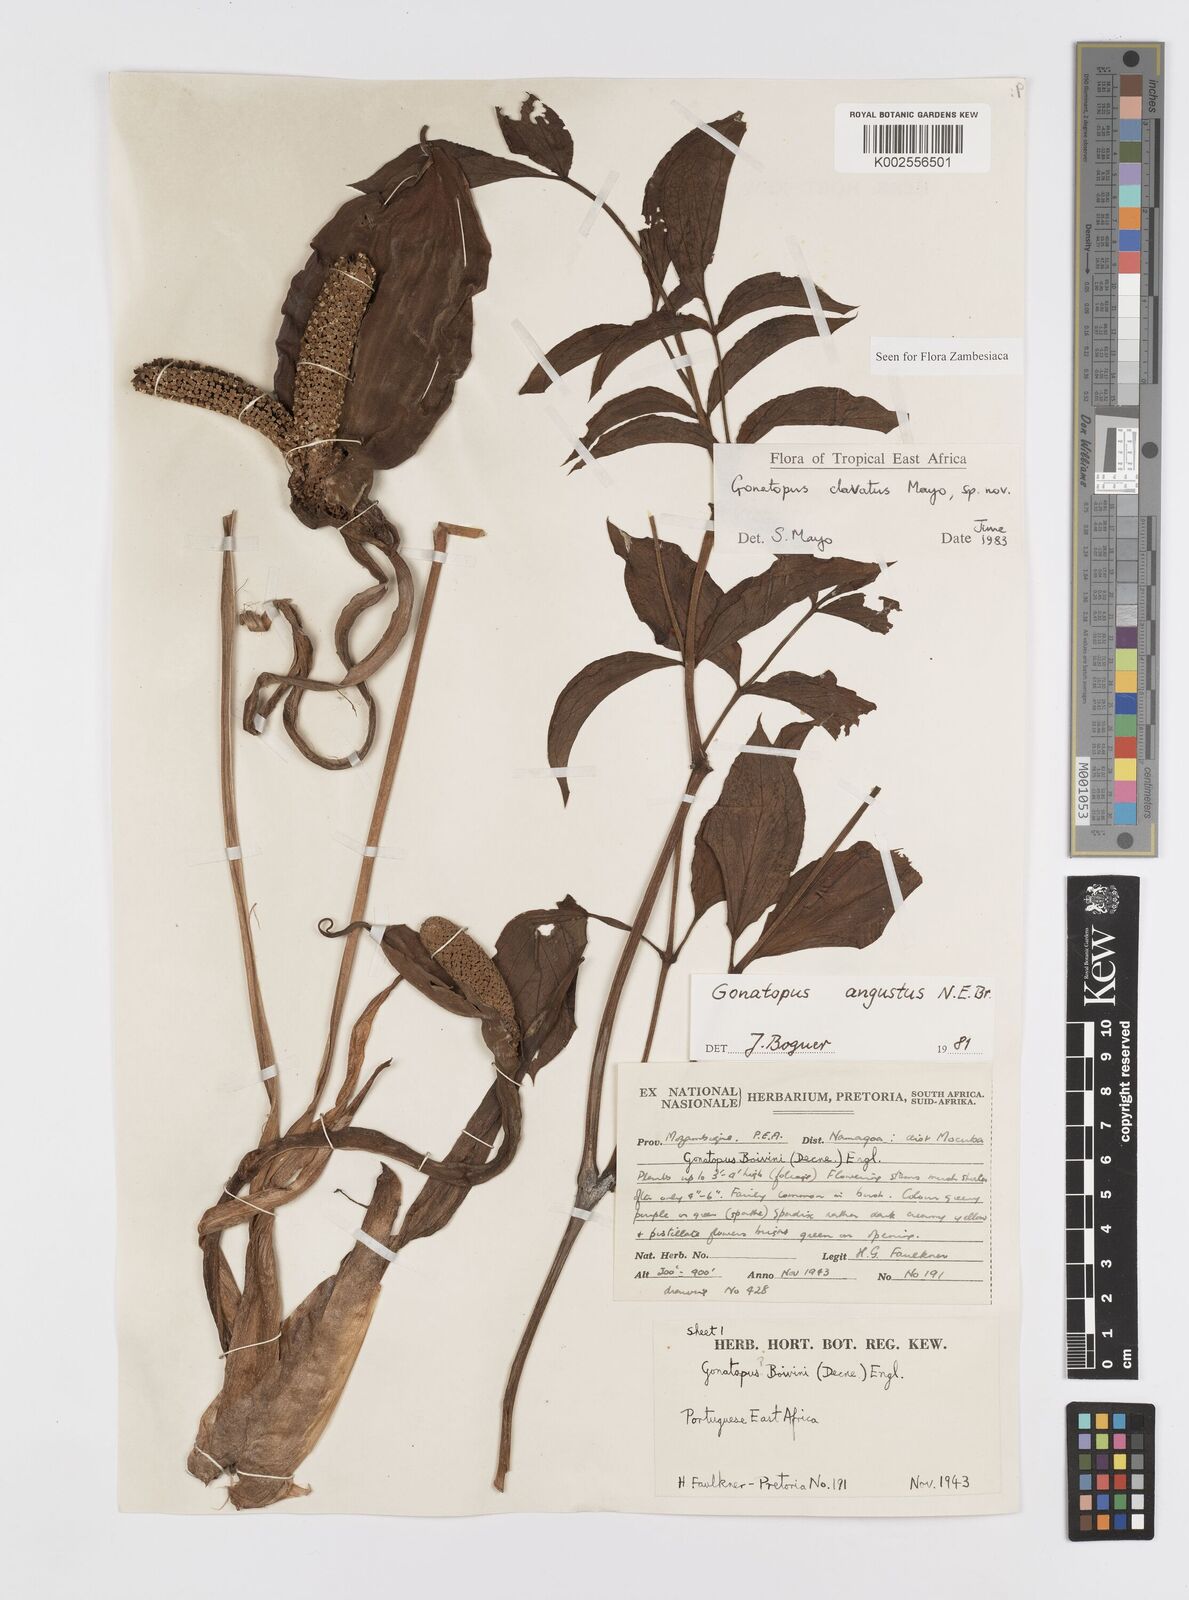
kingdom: Plantae
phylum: Tracheophyta
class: Liliopsida
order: Alismatales
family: Araceae
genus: Gonatopus
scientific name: Gonatopus clavatus
